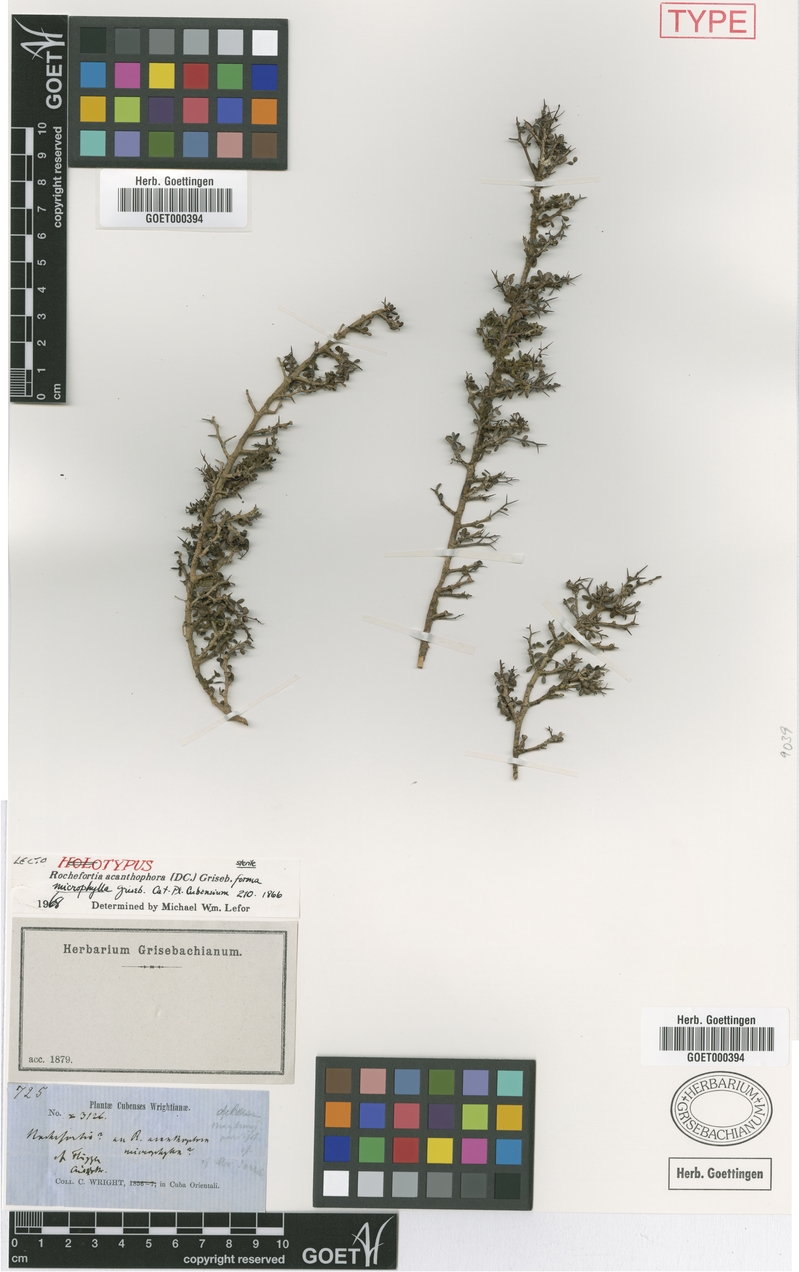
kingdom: Plantae
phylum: Tracheophyta
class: Magnoliopsida
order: Boraginales
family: Ehretiaceae
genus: Rochefortia
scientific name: Rochefortia acanthophora
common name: Greenheart ebony
